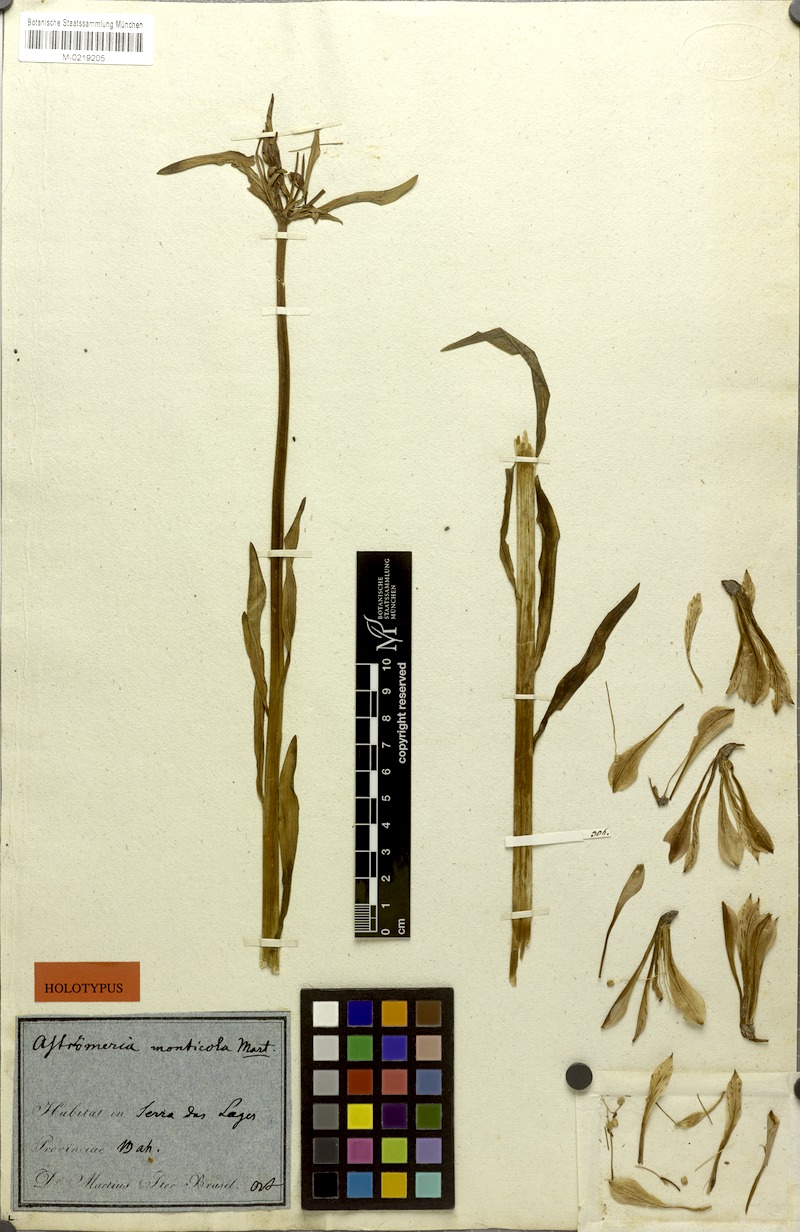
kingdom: Plantae
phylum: Tracheophyta
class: Liliopsida
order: Liliales
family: Alstroemeriaceae
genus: Alstroemeria
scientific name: Alstroemeria monticola
